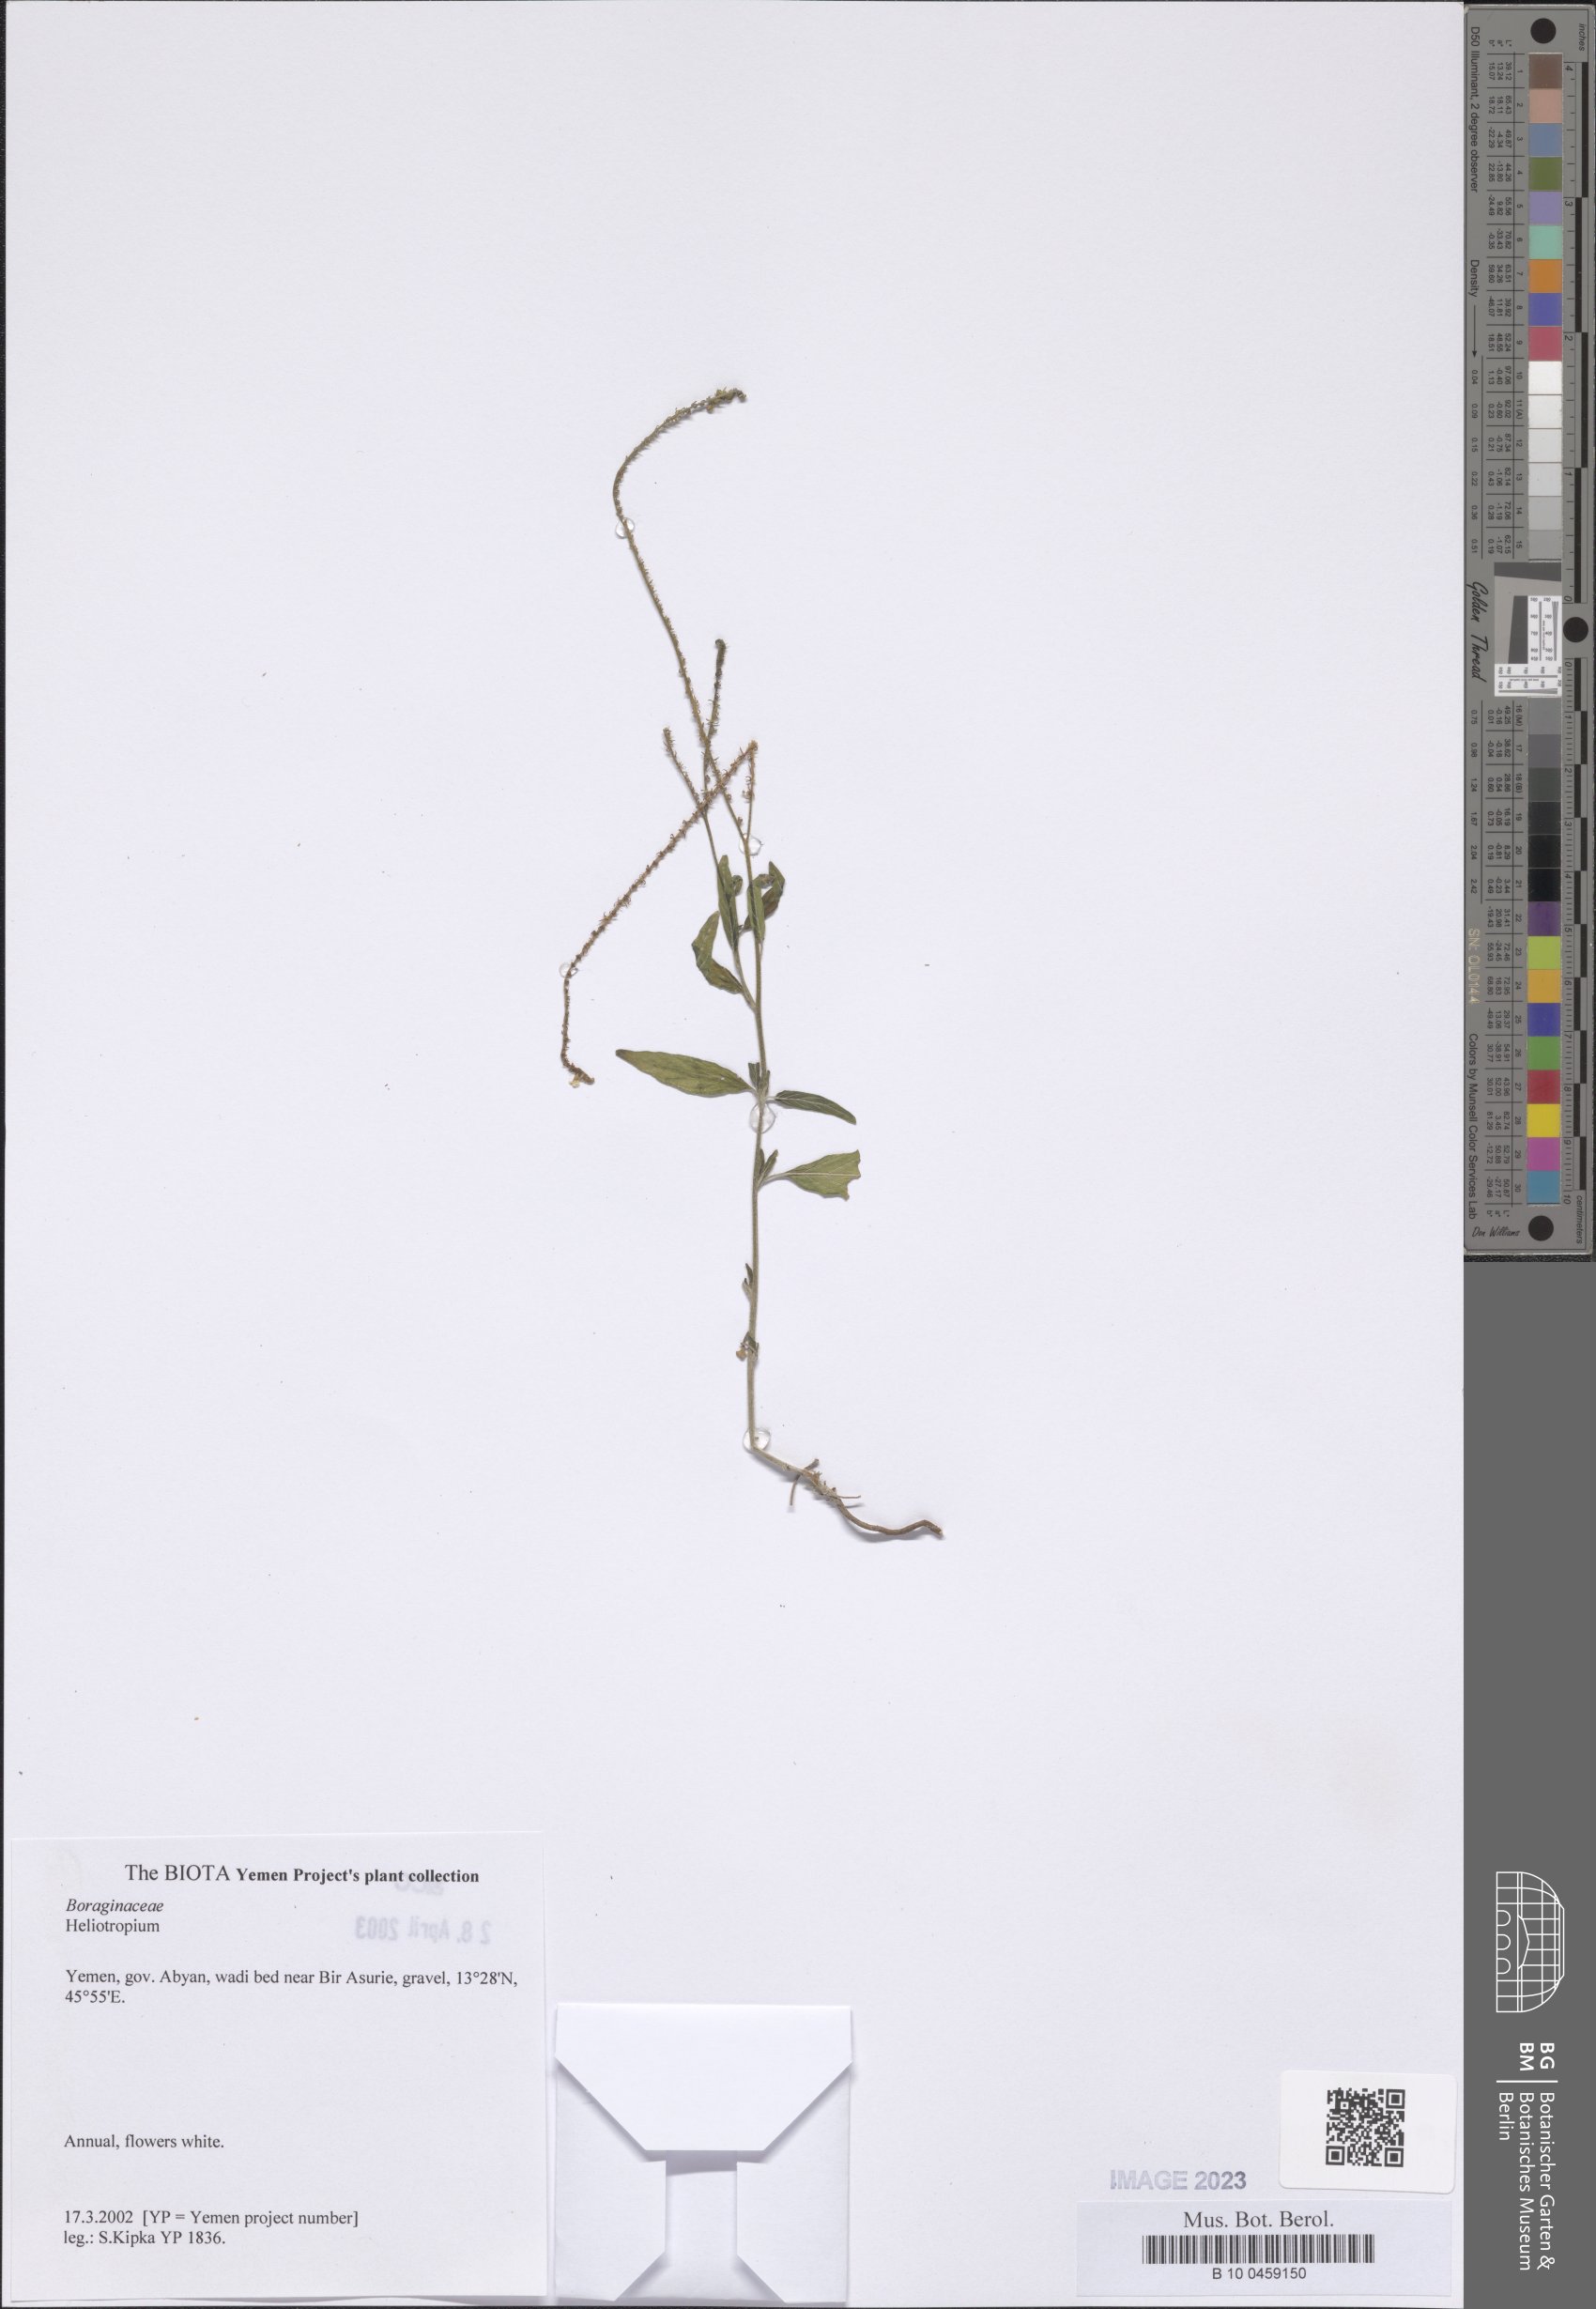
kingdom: Plantae
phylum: Tracheophyta
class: Magnoliopsida
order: Boraginales
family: Heliotropiaceae
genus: Heliotropium
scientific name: Heliotropium
